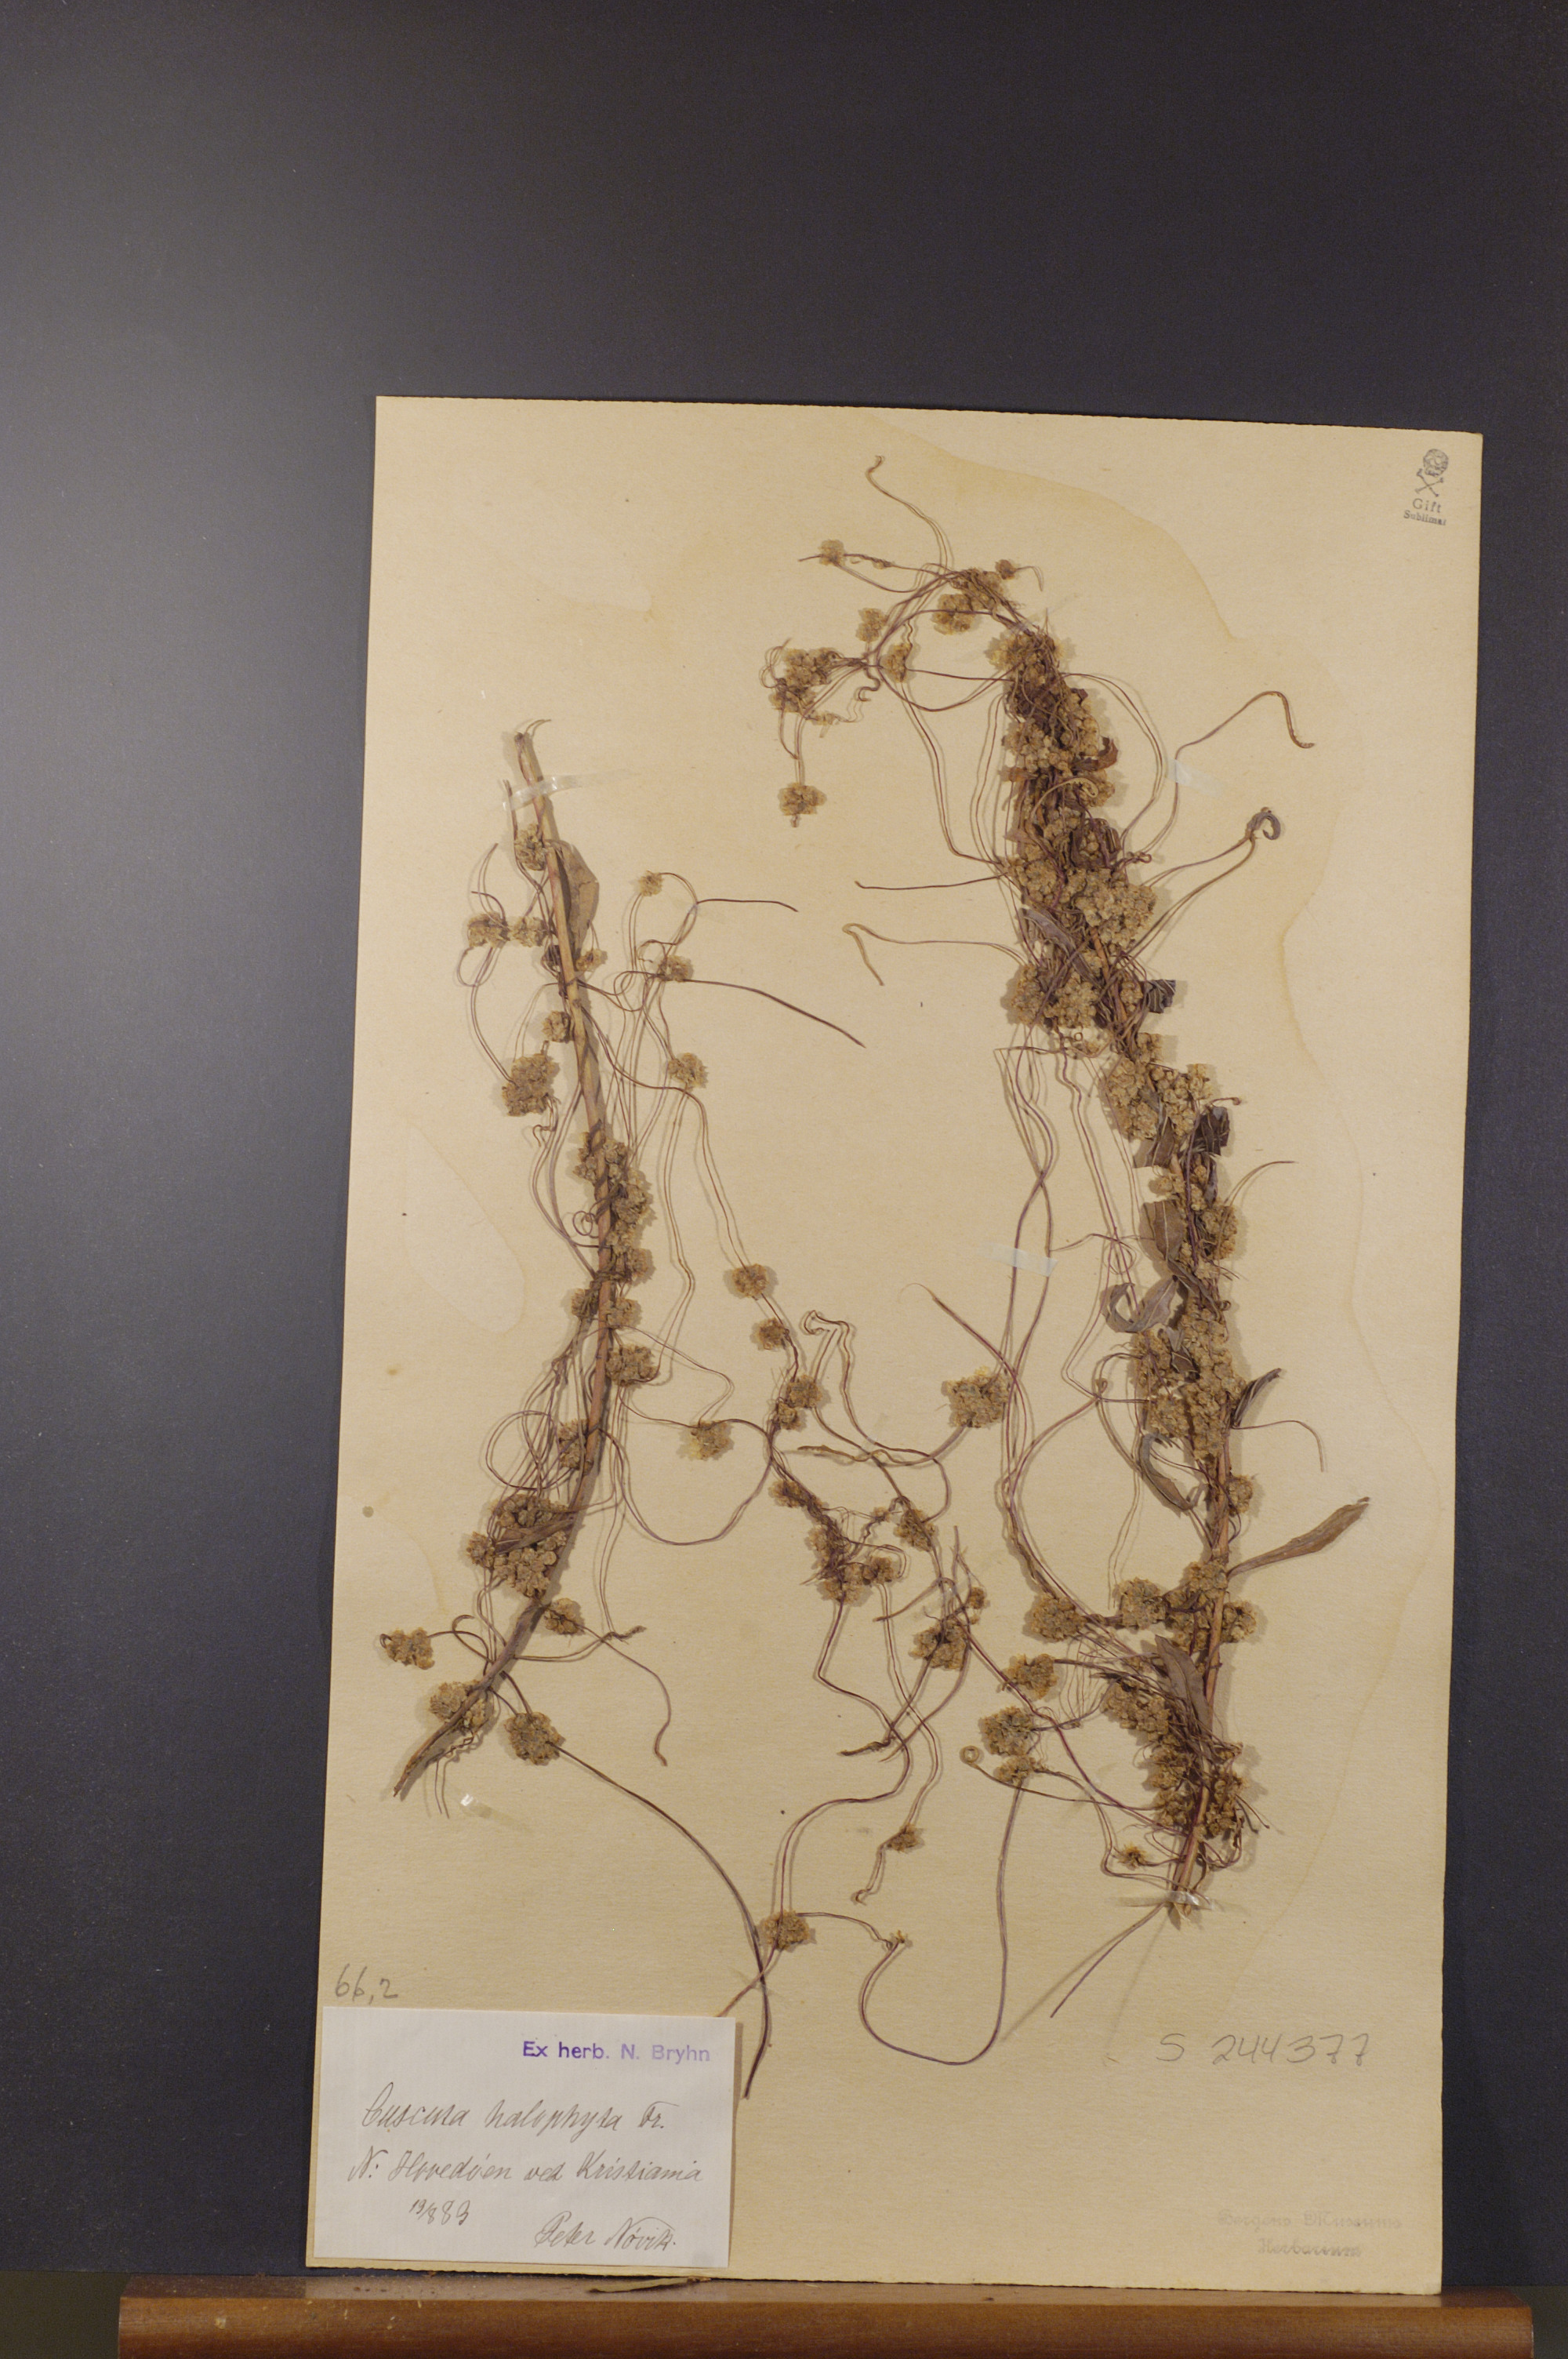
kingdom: Plantae
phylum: Tracheophyta
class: Magnoliopsida
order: Solanales
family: Convolvulaceae
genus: Cuscuta
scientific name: Cuscuta europaea
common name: Greater dodder
